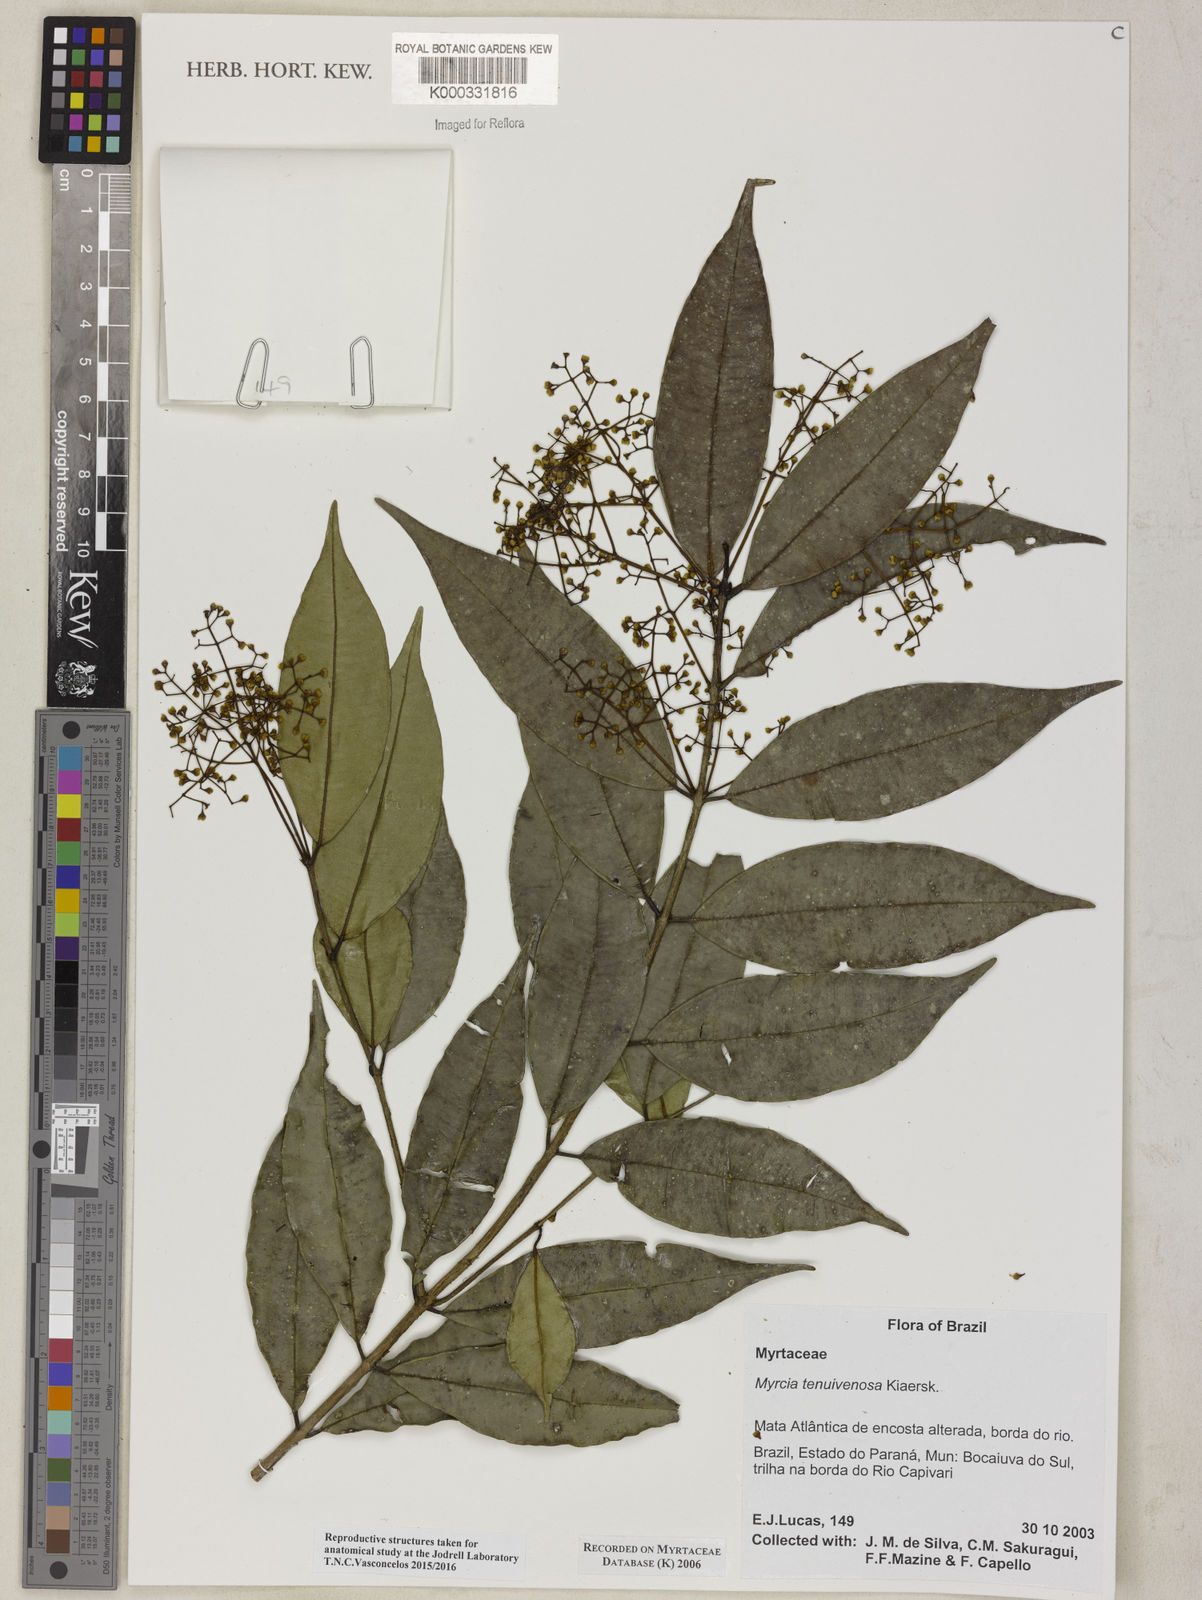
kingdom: Plantae
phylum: Tracheophyta
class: Magnoliopsida
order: Myrtales
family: Myrtaceae
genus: Myrcia
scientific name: Myrcia tenuivenosa
